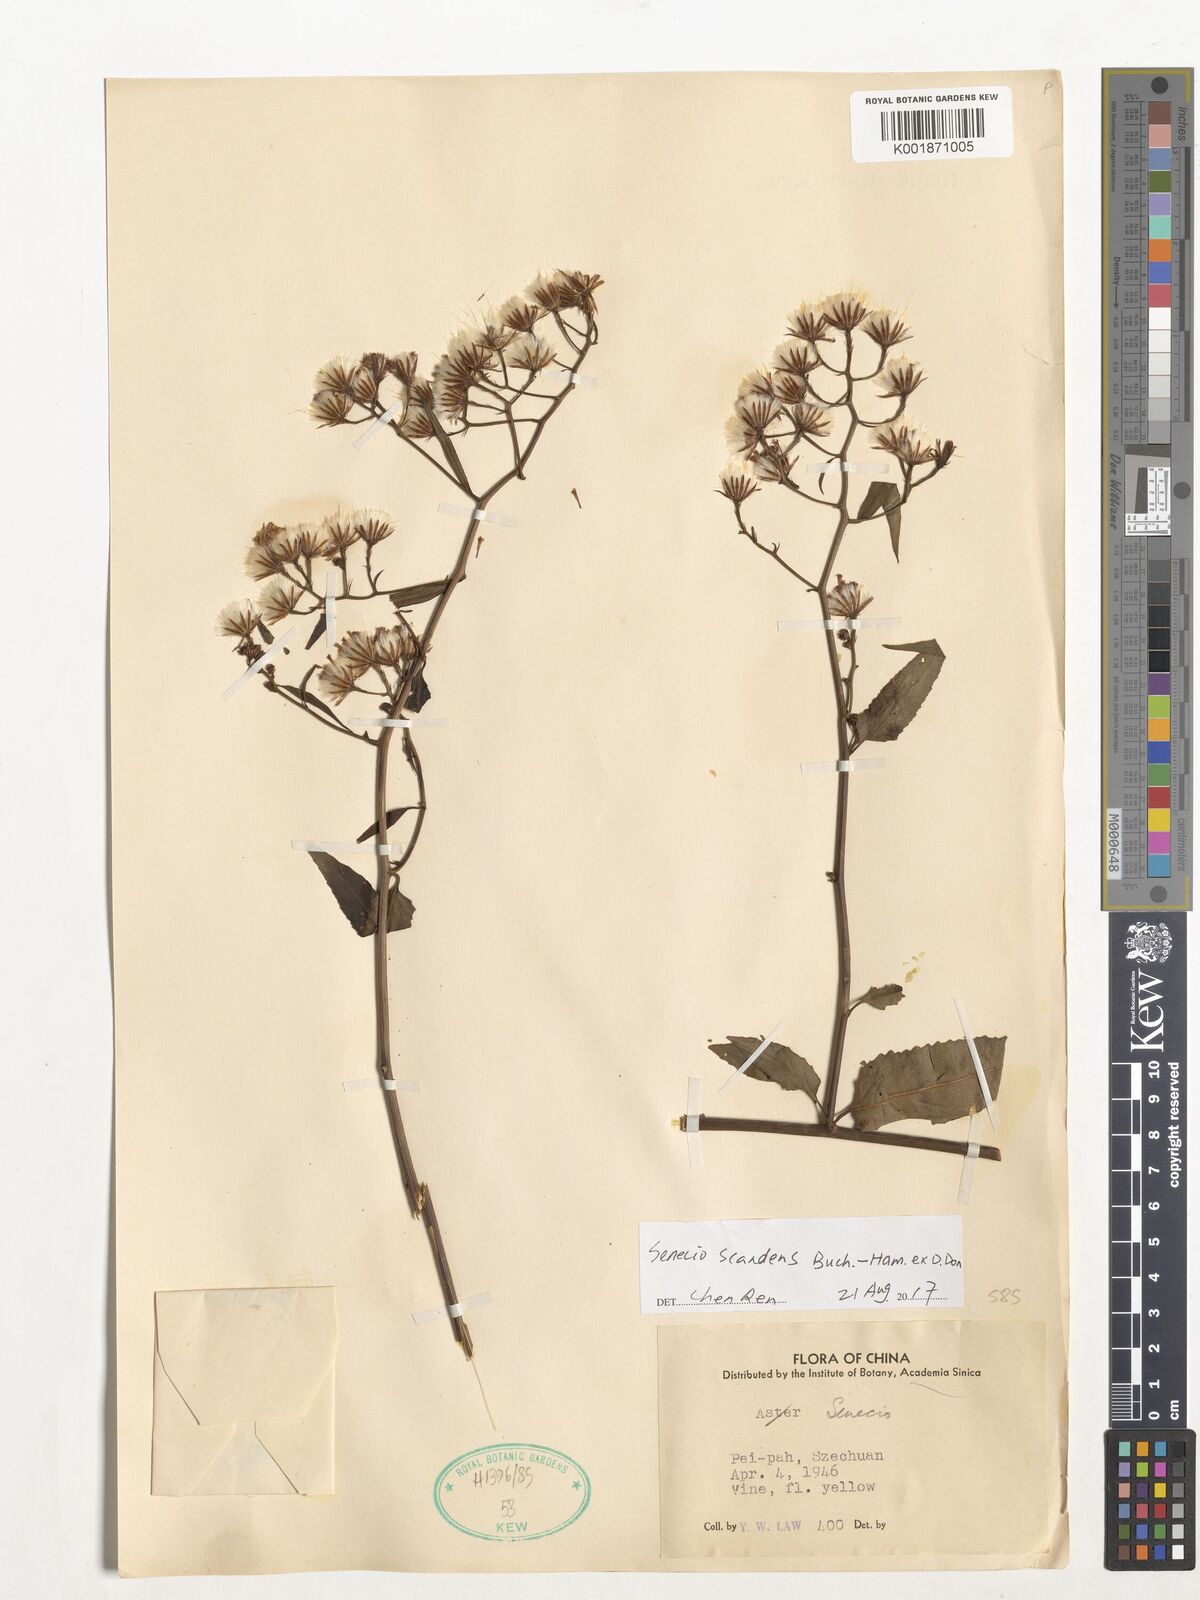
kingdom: Plantae
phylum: Tracheophyta
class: Magnoliopsida
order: Asterales
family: Asteraceae
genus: Senecio
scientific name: Senecio scandens
